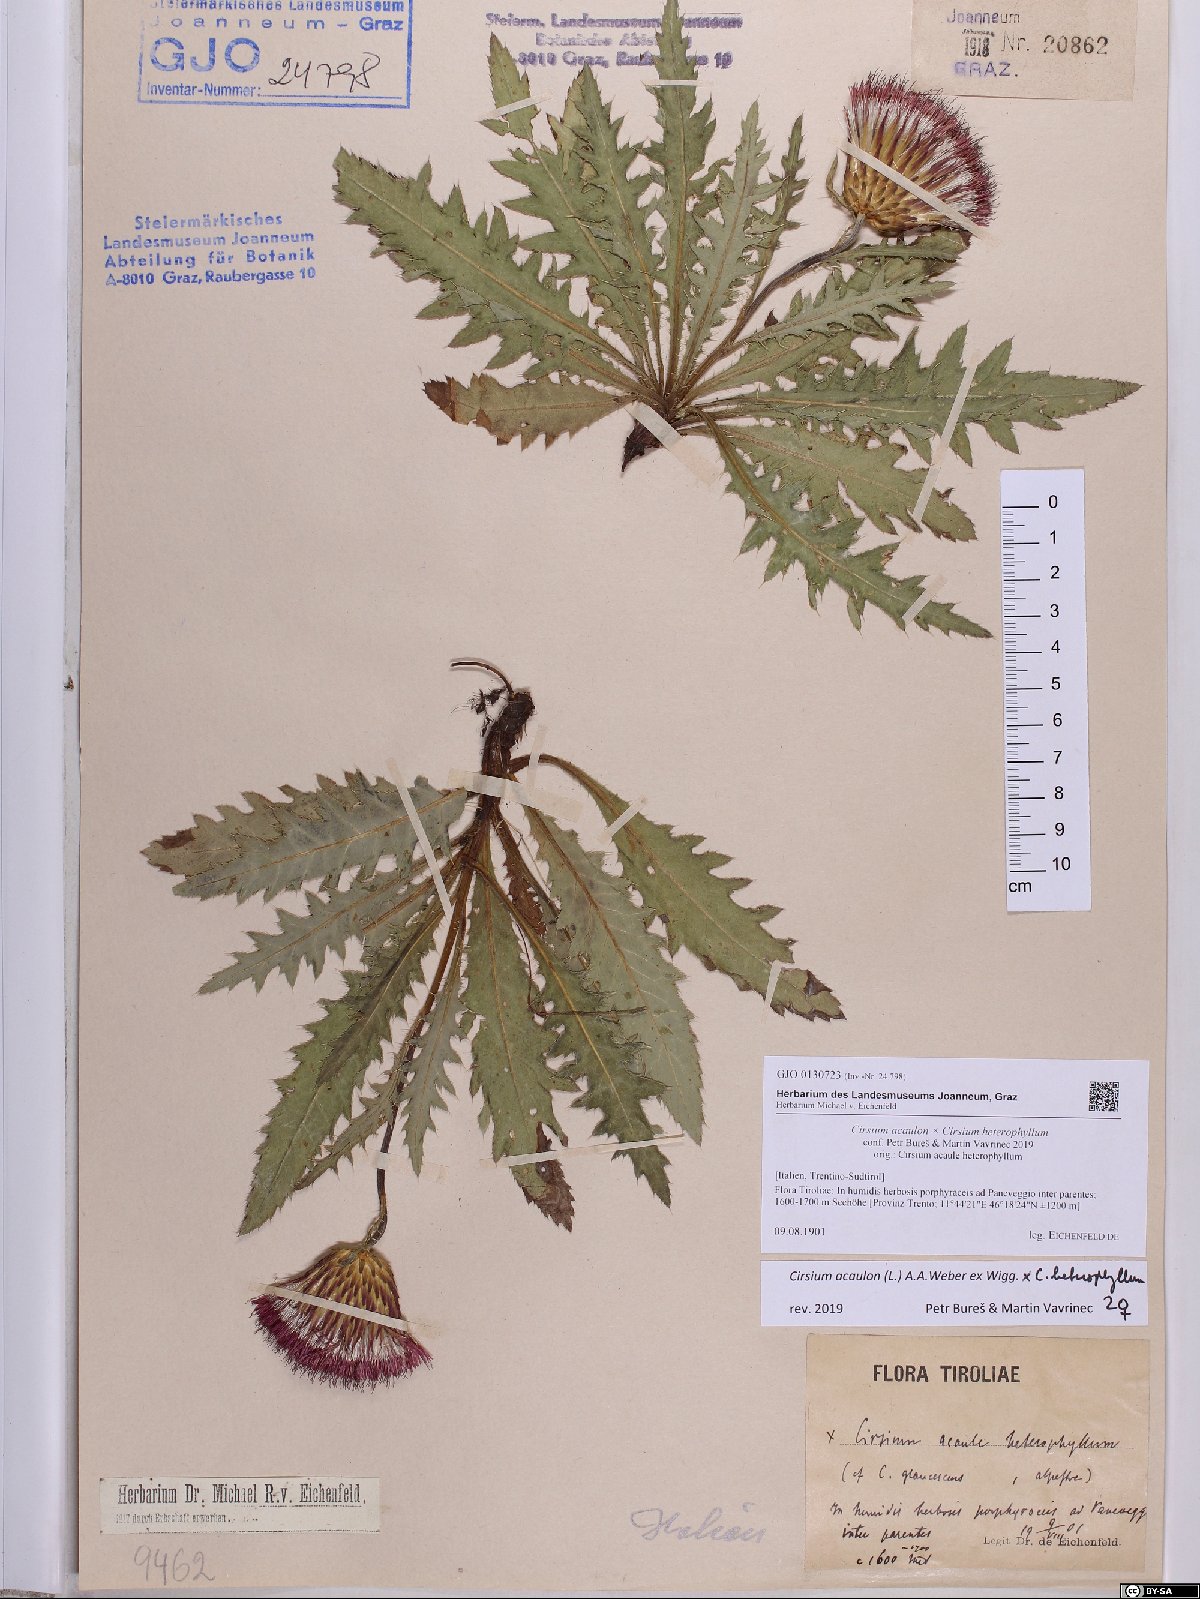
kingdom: Plantae
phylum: Tracheophyta
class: Magnoliopsida
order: Asterales
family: Asteraceae
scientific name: Asteraceae
